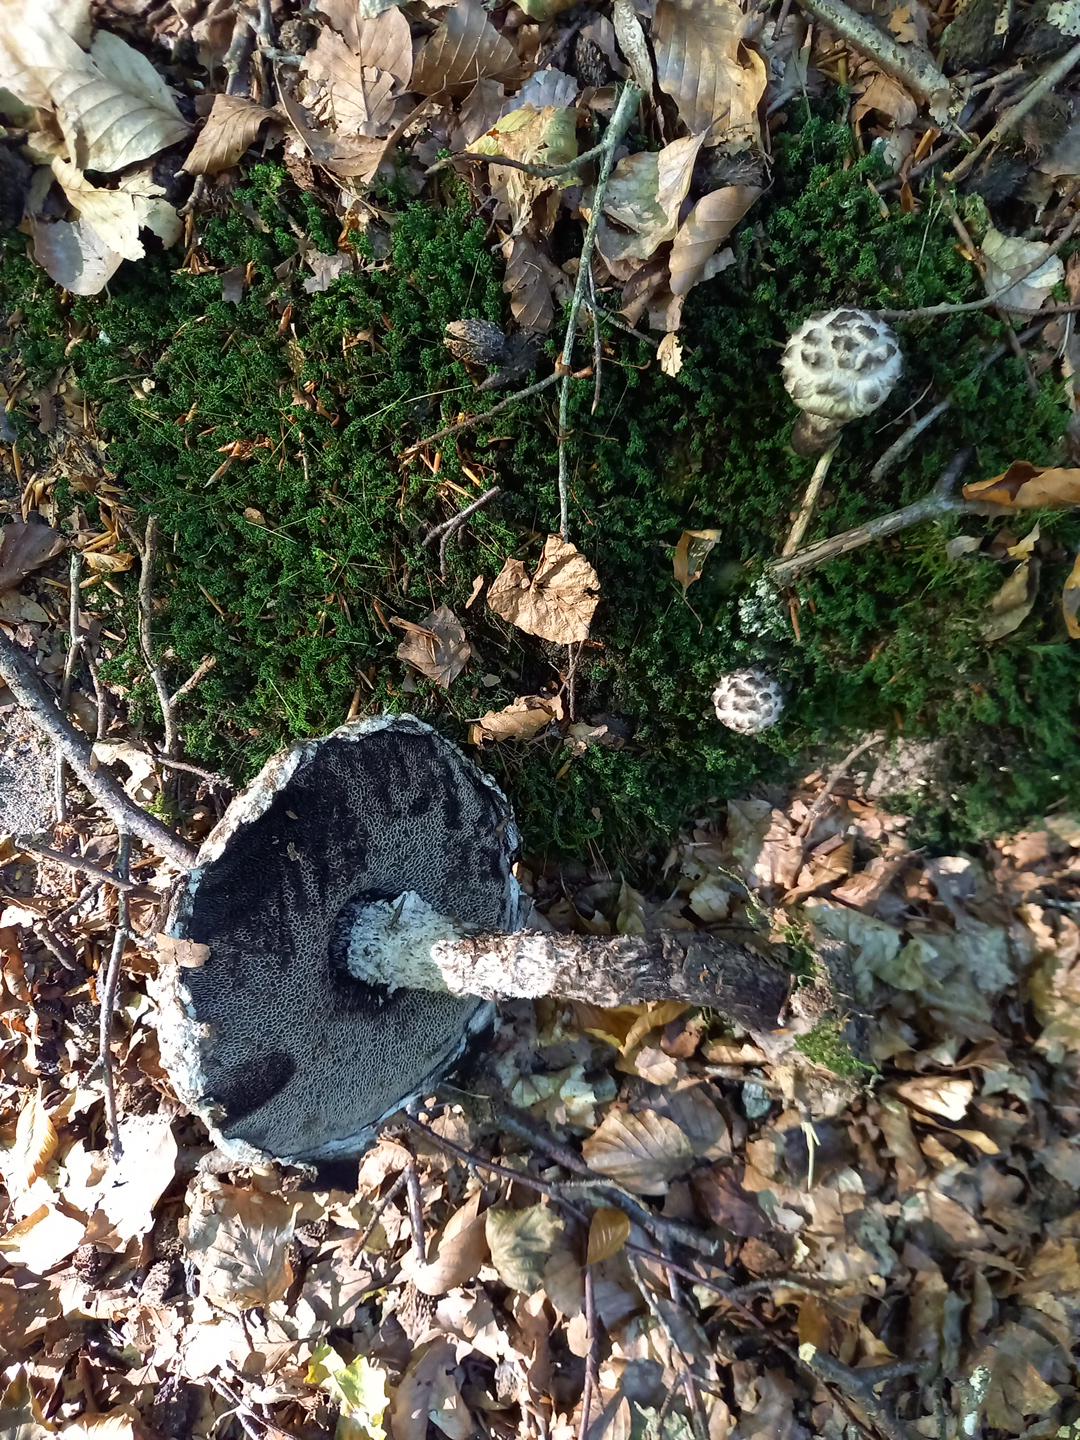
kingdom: Fungi
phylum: Basidiomycota
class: Agaricomycetes
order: Boletales
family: Boletaceae
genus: Strobilomyces
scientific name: Strobilomyces strobilaceus
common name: koglerørhat
